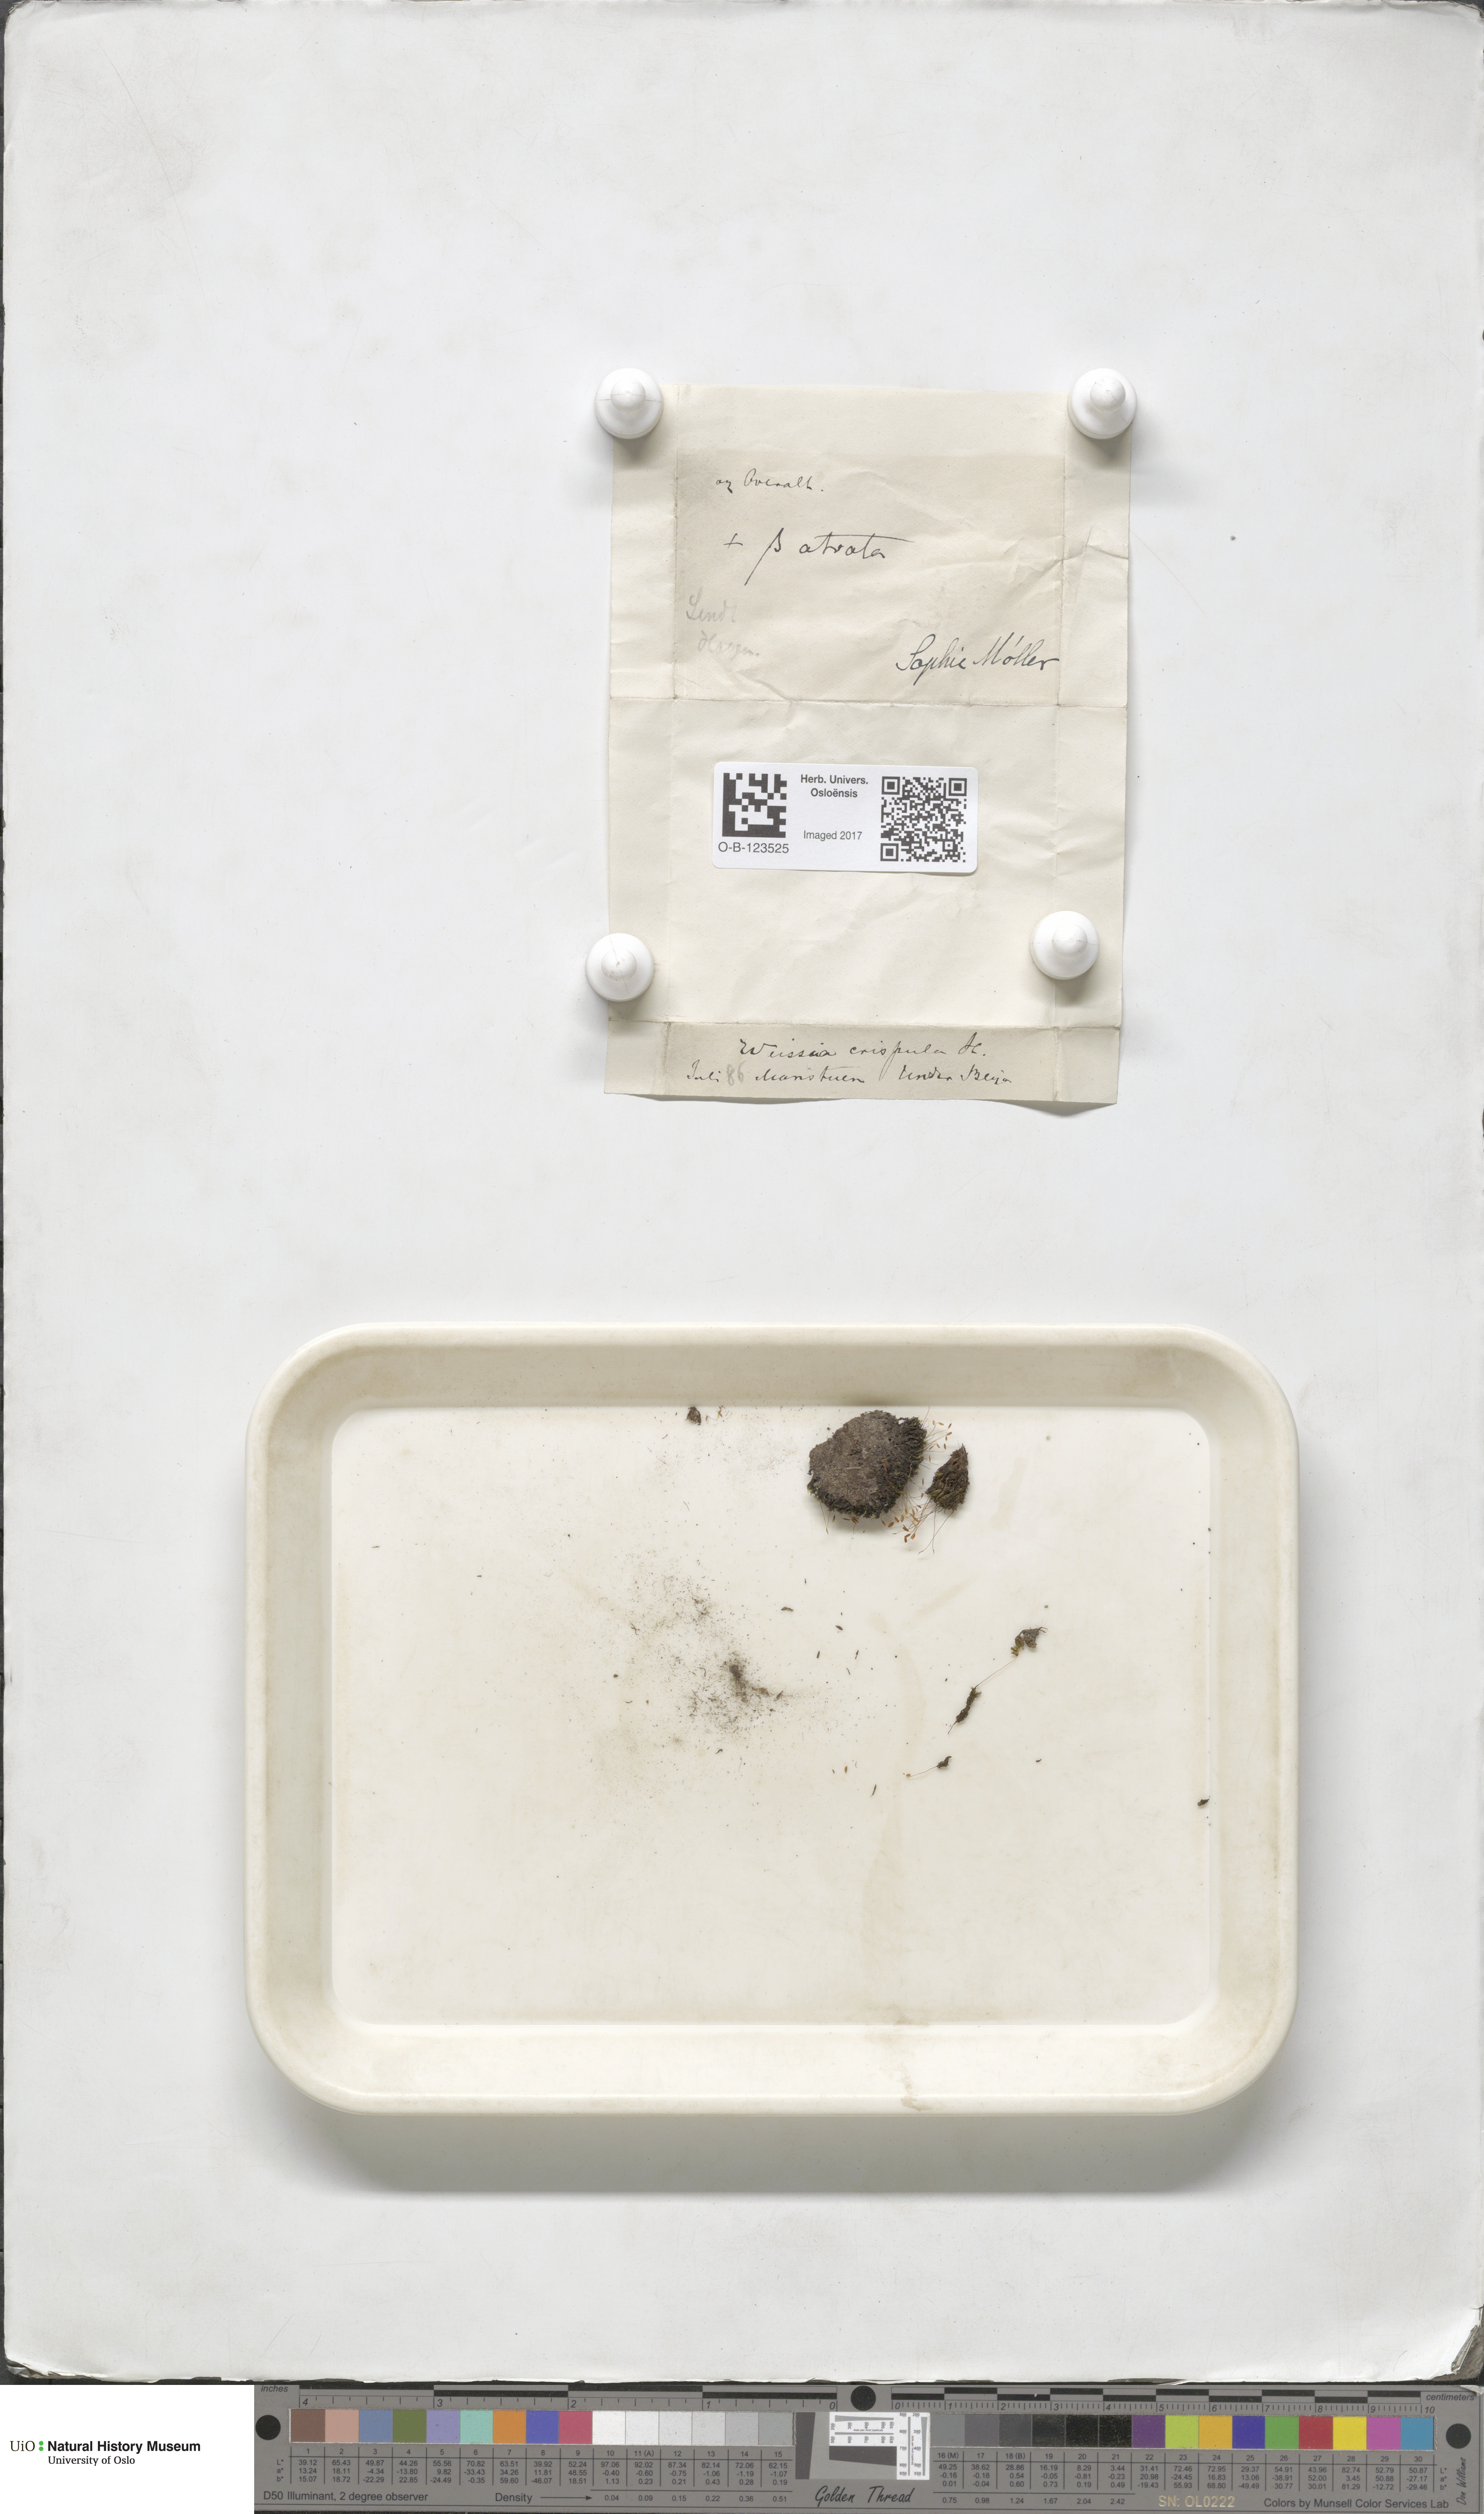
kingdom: Plantae
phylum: Bryophyta
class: Bryopsida
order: Scouleriales
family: Hymenolomataceae
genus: Hymenoloma
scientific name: Hymenoloma crispulum
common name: Mountain pincushion
